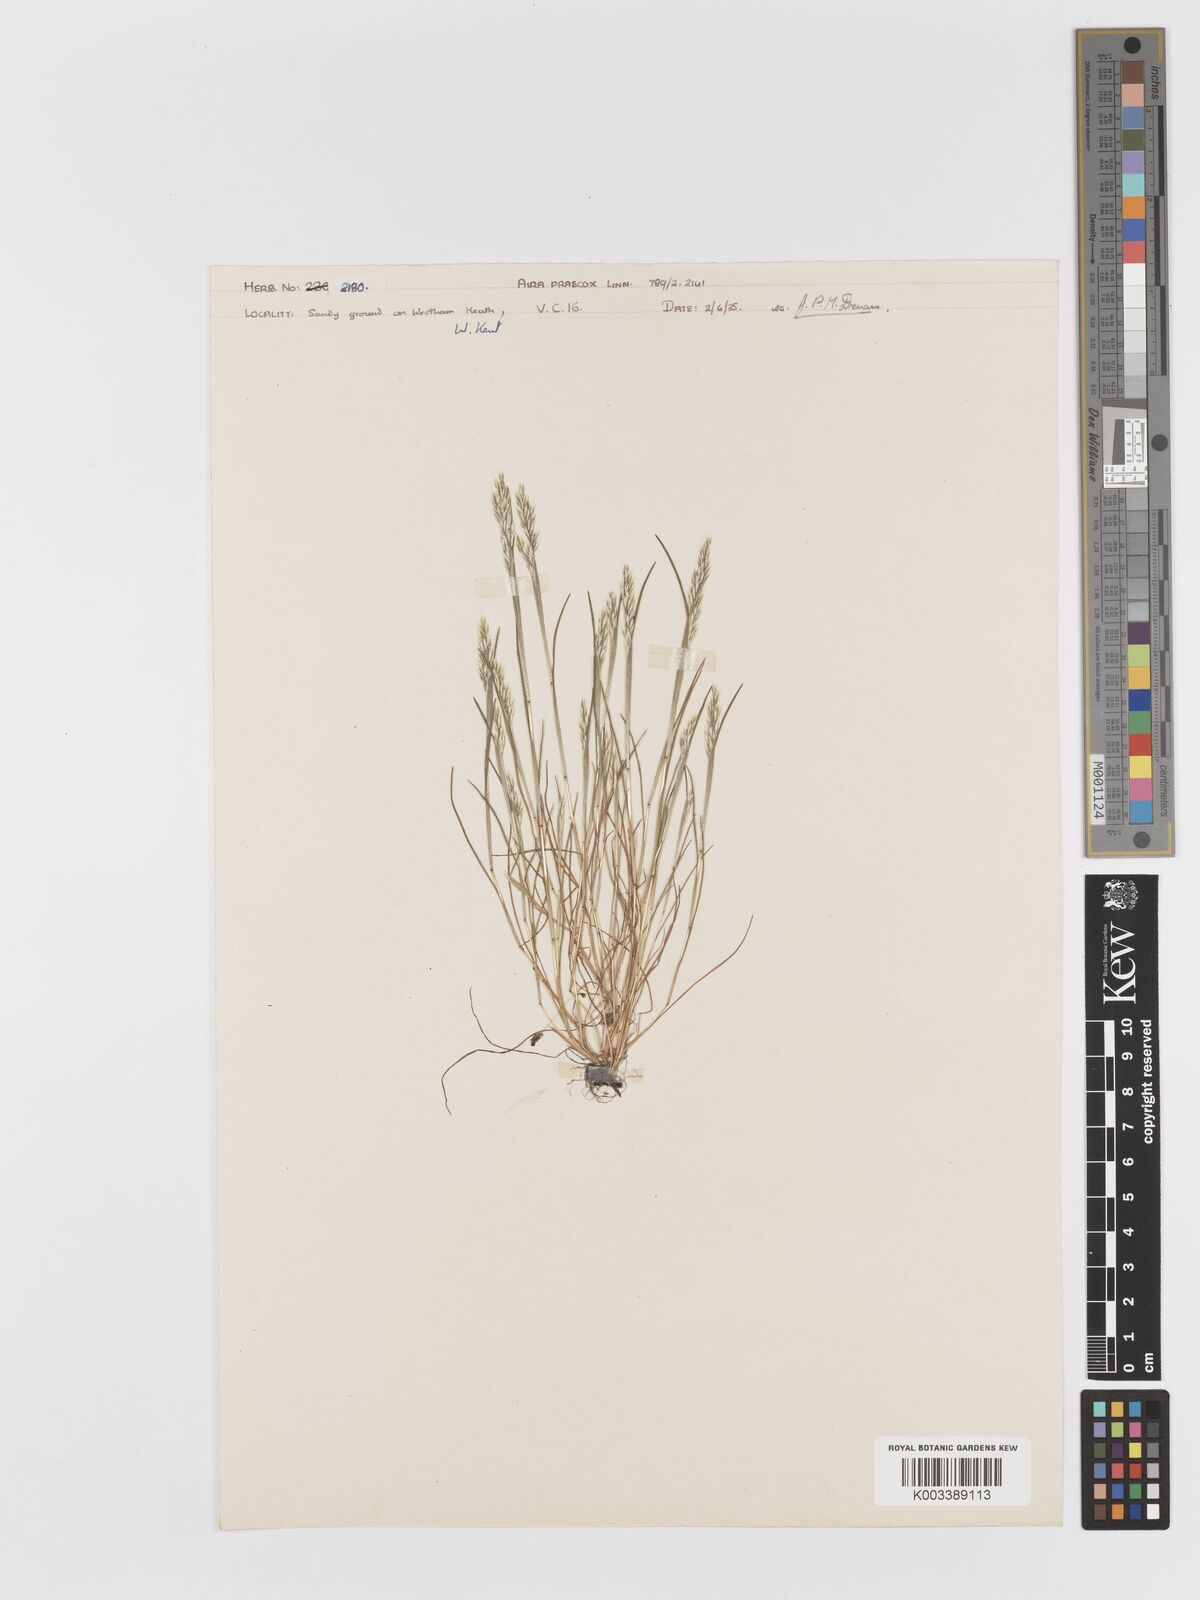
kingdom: Plantae
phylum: Tracheophyta
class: Liliopsida
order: Poales
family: Poaceae
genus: Aira
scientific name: Aira praecox
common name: Early hair-grass
